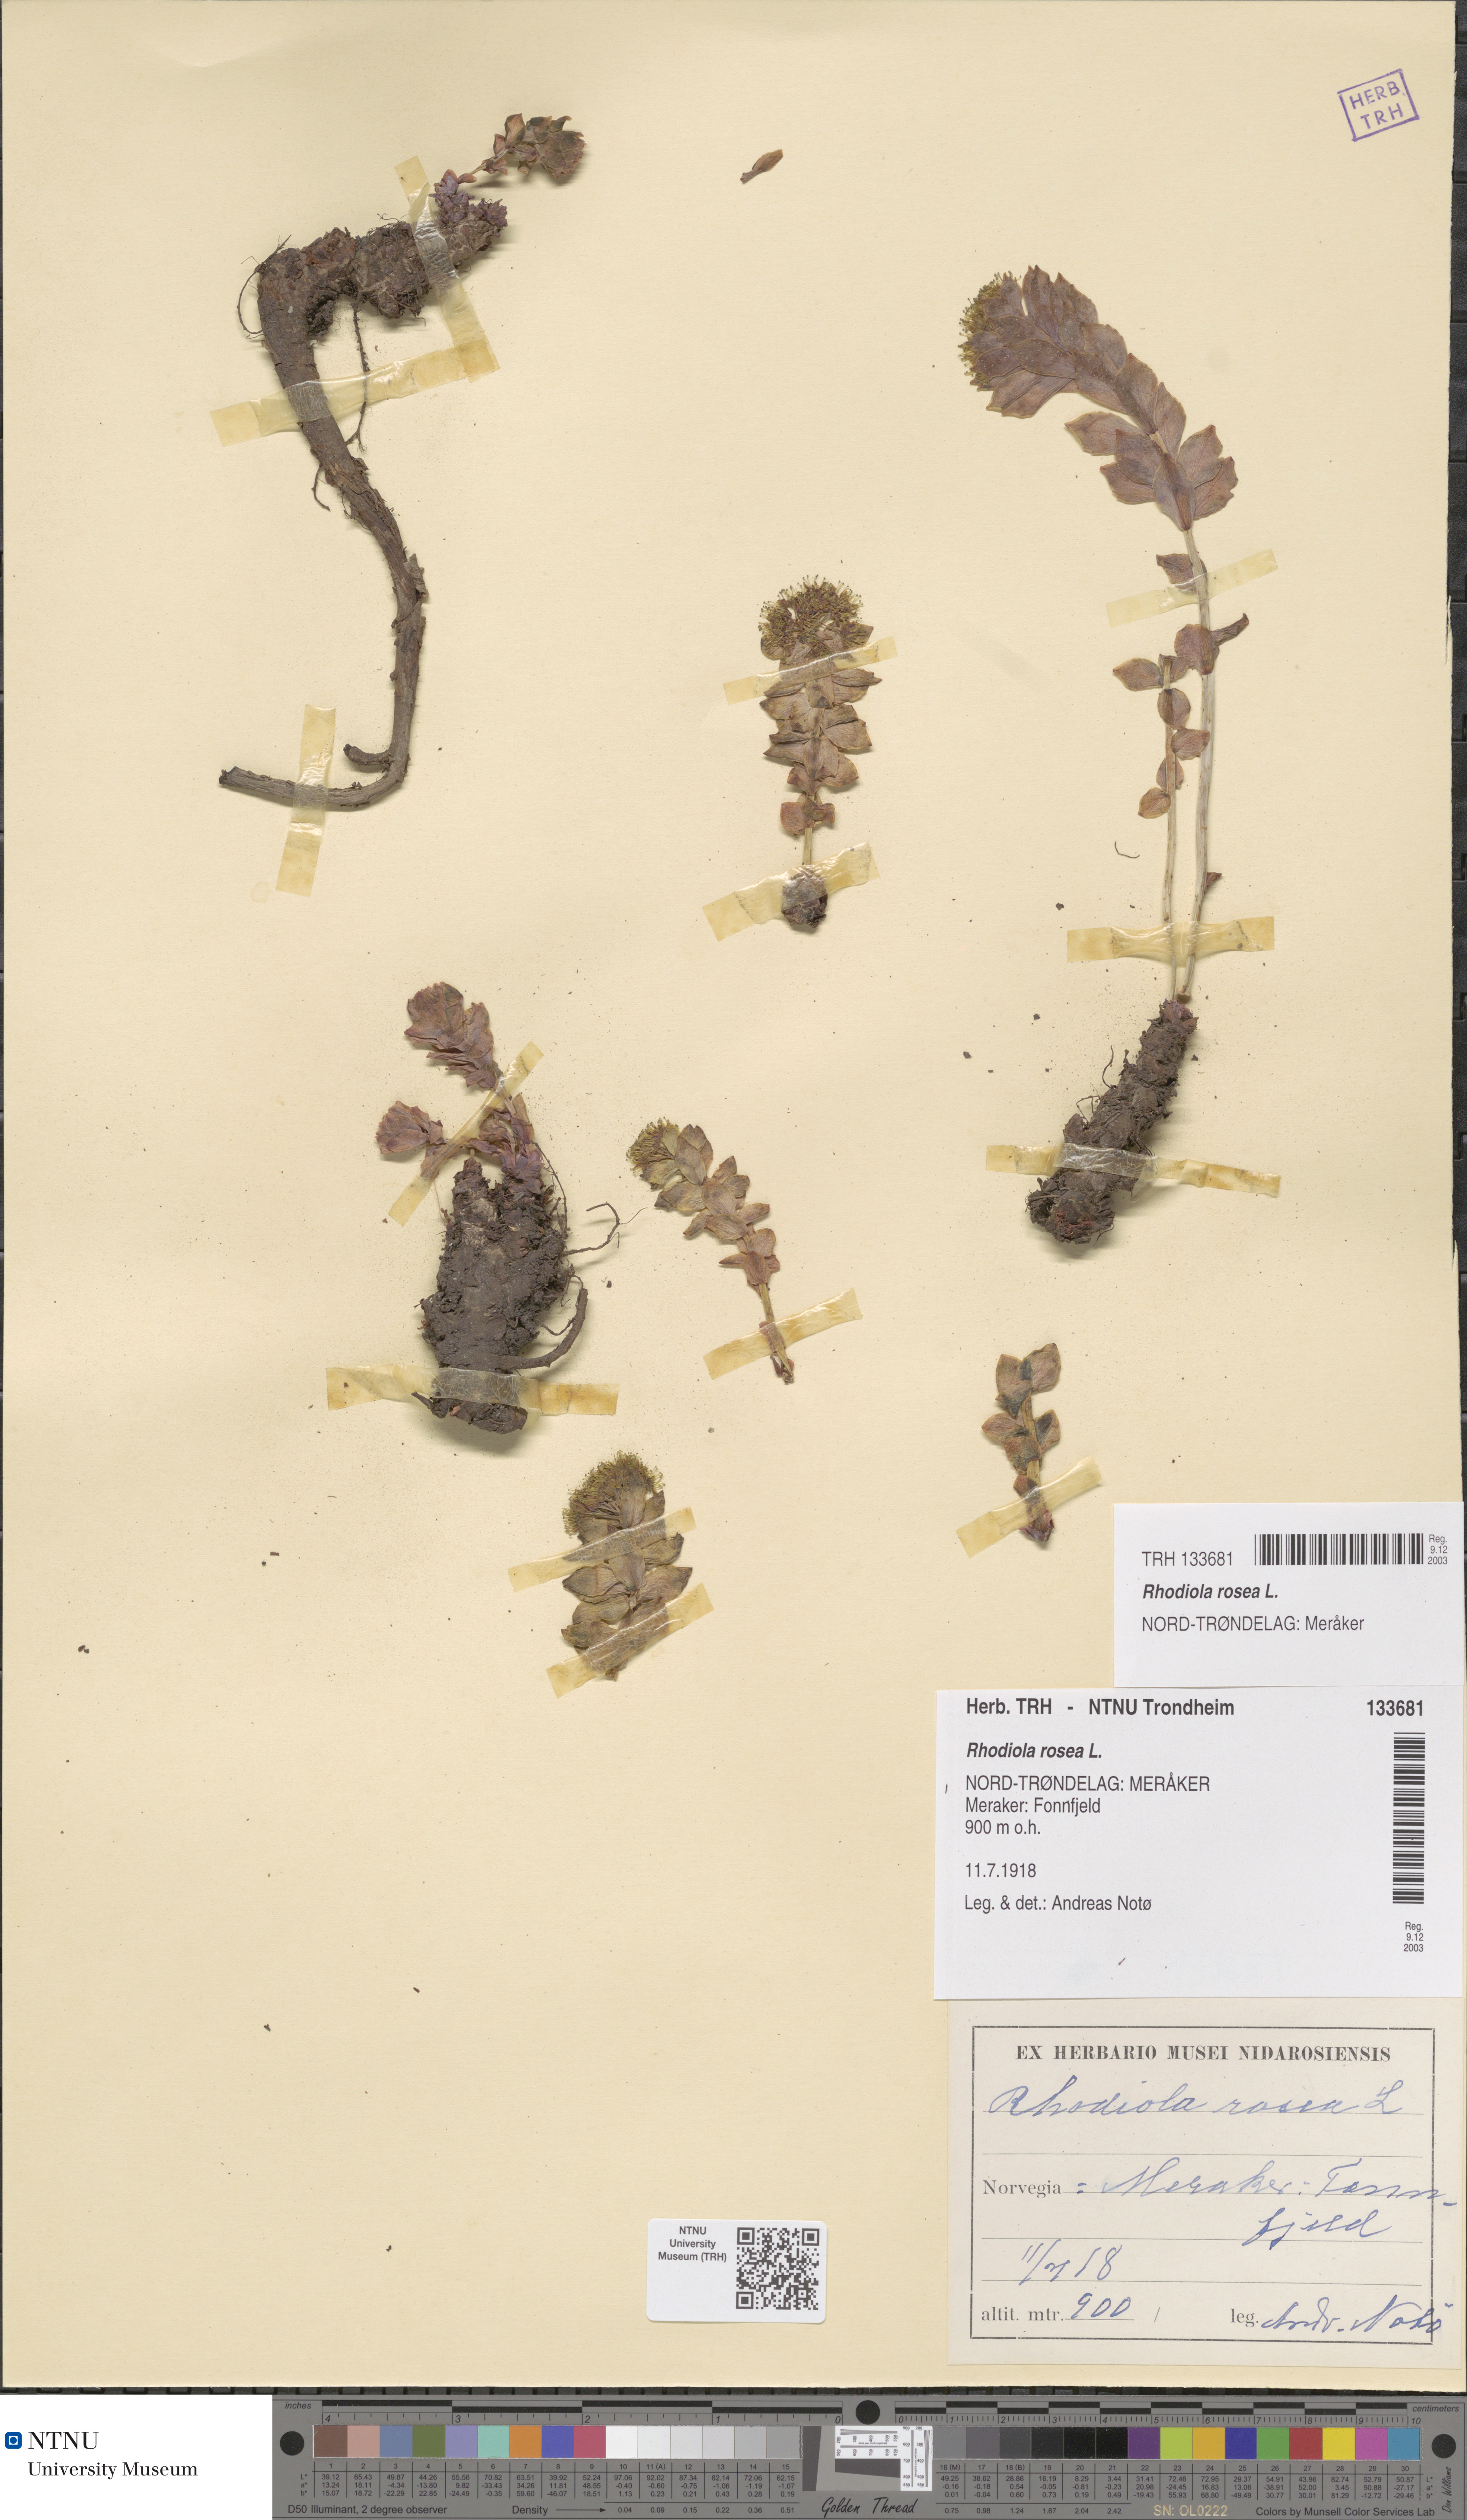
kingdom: Plantae
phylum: Tracheophyta
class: Magnoliopsida
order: Saxifragales
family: Crassulaceae
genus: Rhodiola
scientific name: Rhodiola rosea
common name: Roseroot
